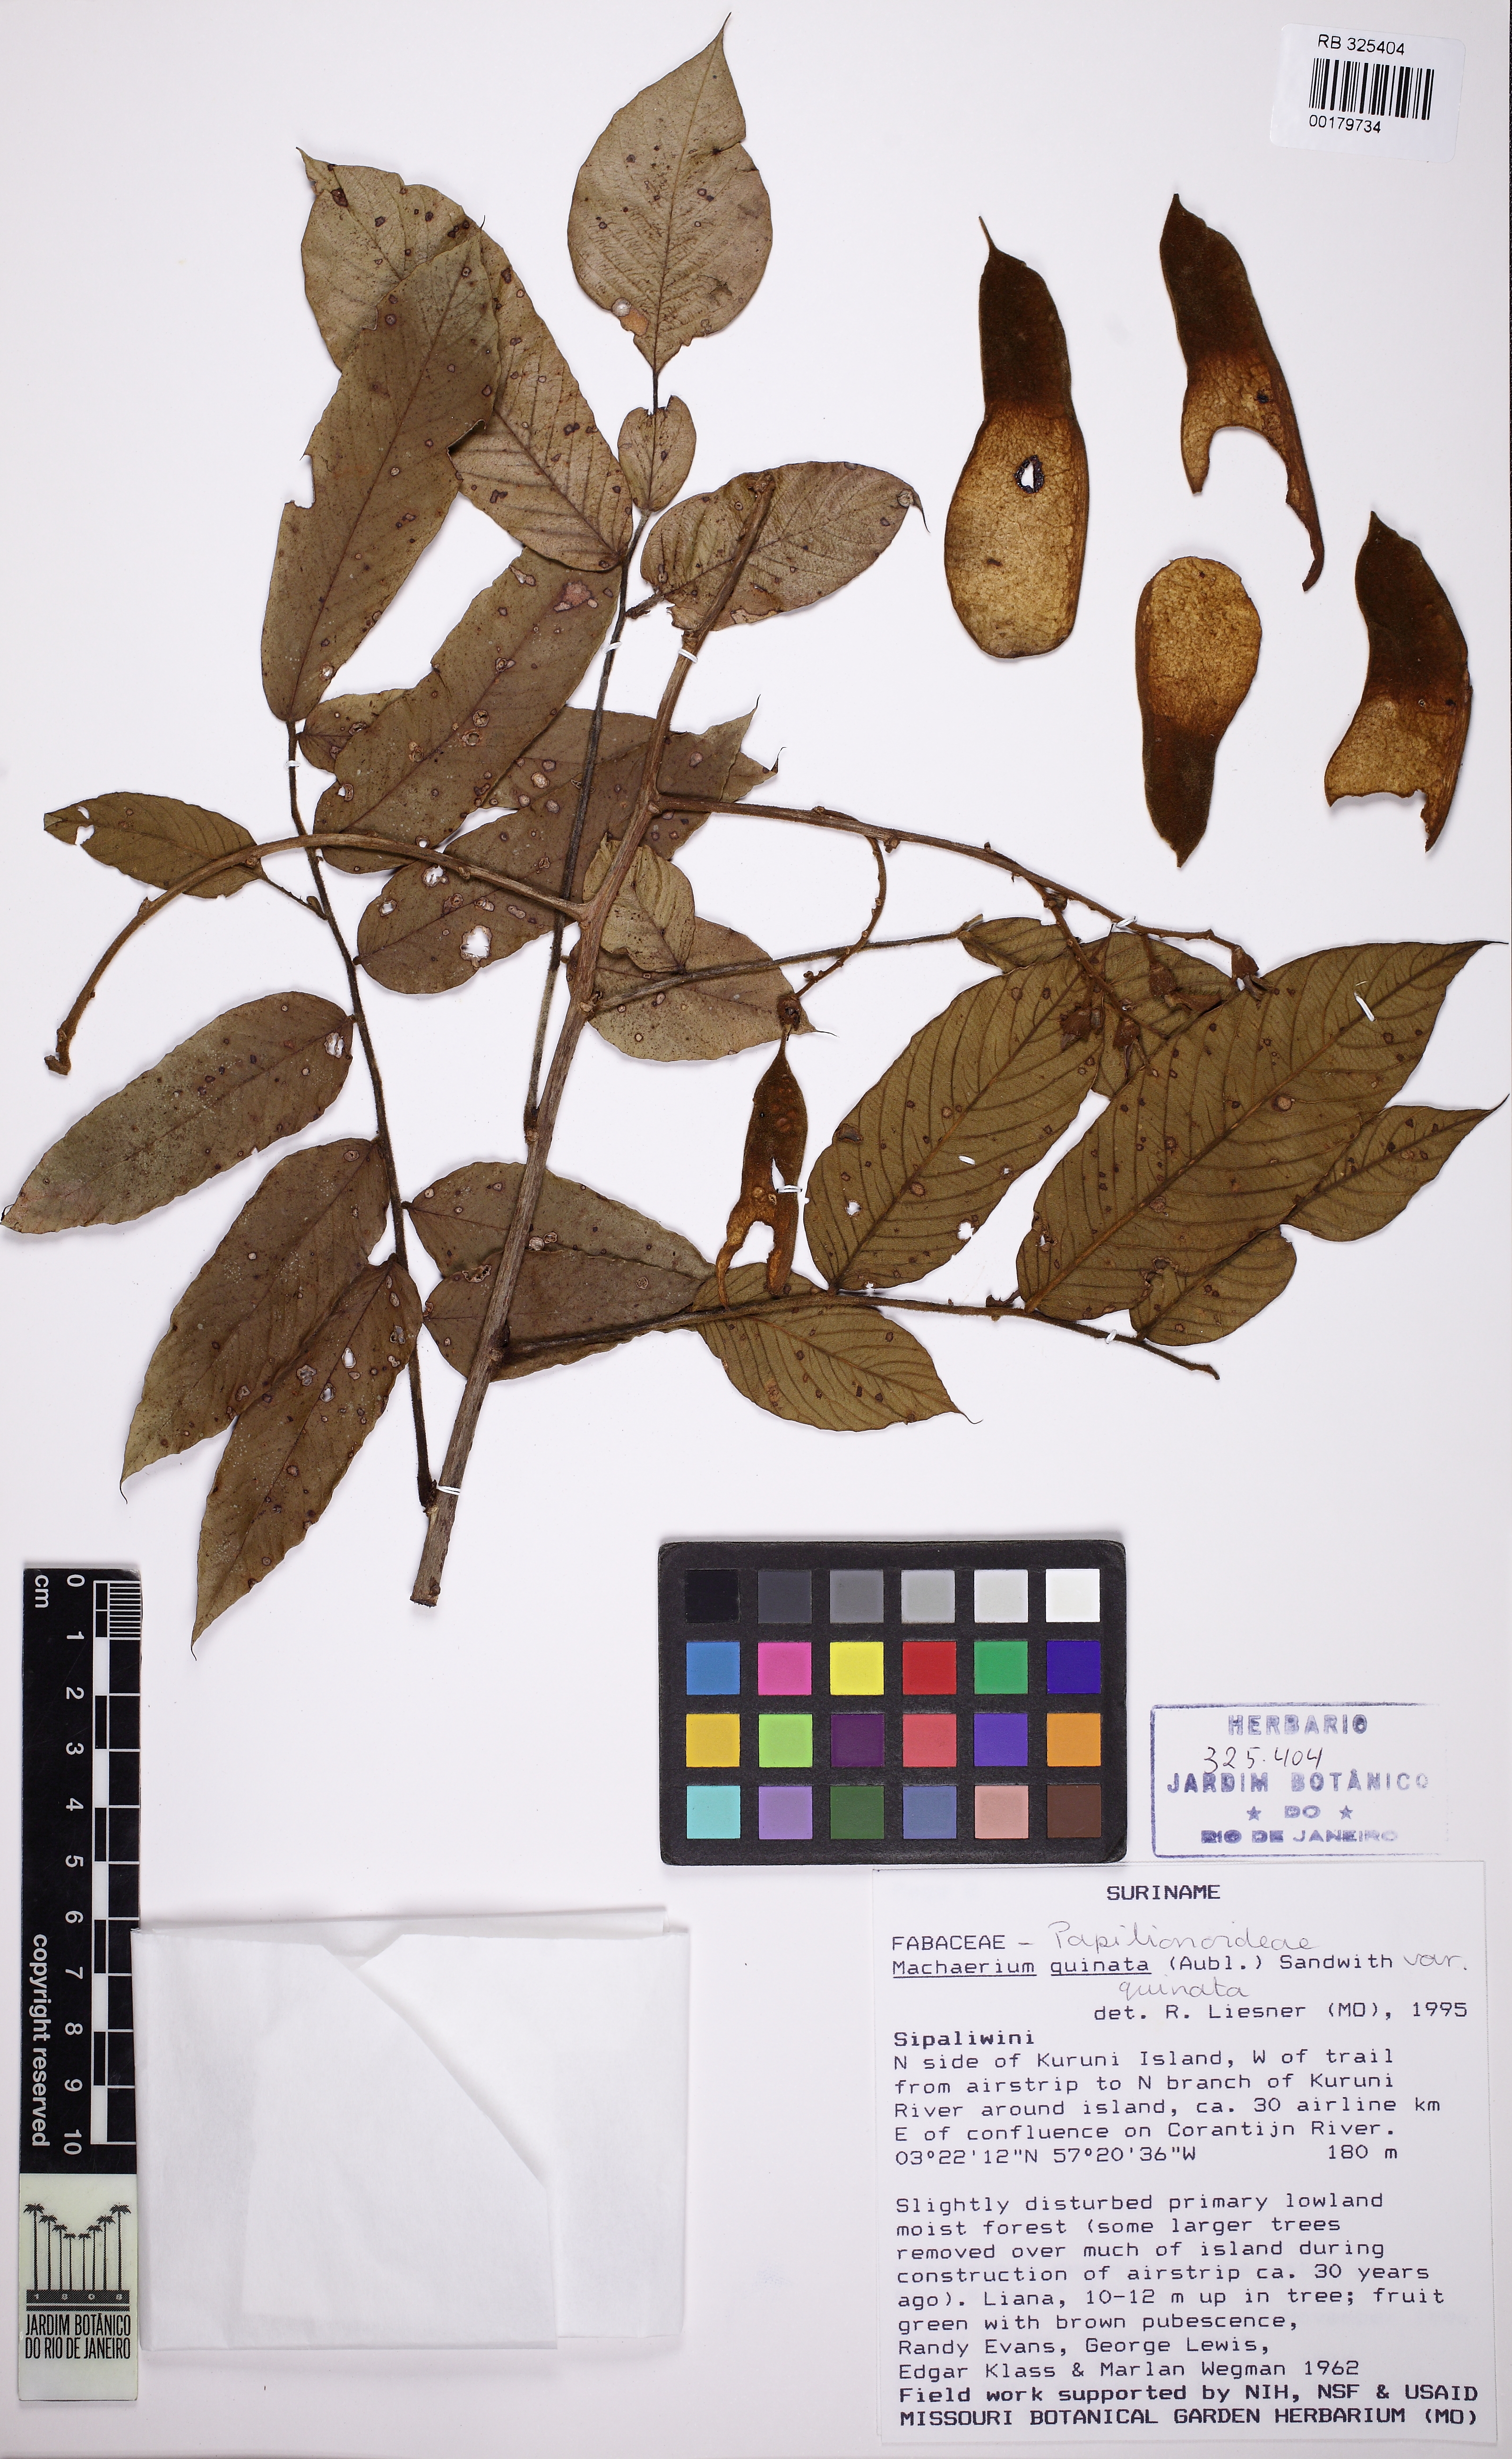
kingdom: Plantae
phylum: Tracheophyta
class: Magnoliopsida
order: Fabales
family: Fabaceae
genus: Machaerium
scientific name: Machaerium quinata
